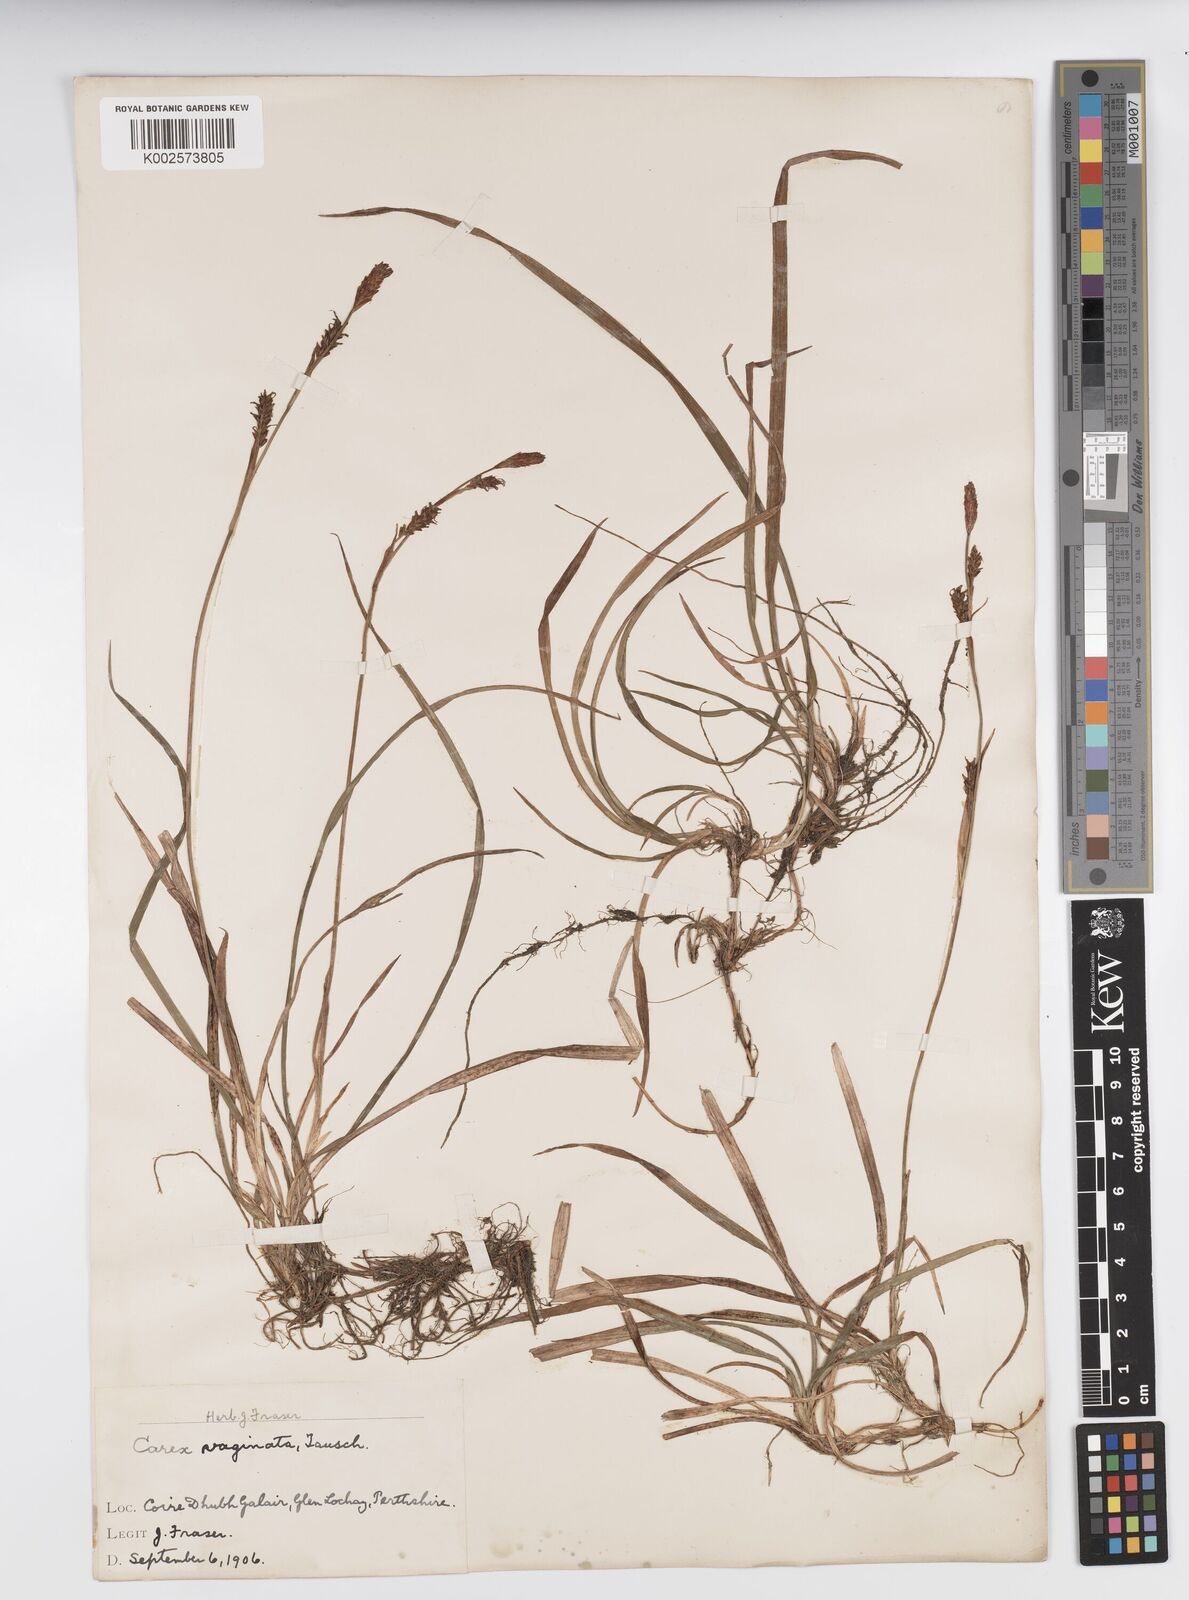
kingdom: Plantae
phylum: Tracheophyta
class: Liliopsida
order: Poales
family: Cyperaceae
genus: Carex
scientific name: Carex vaginata
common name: Sheathed sedge
